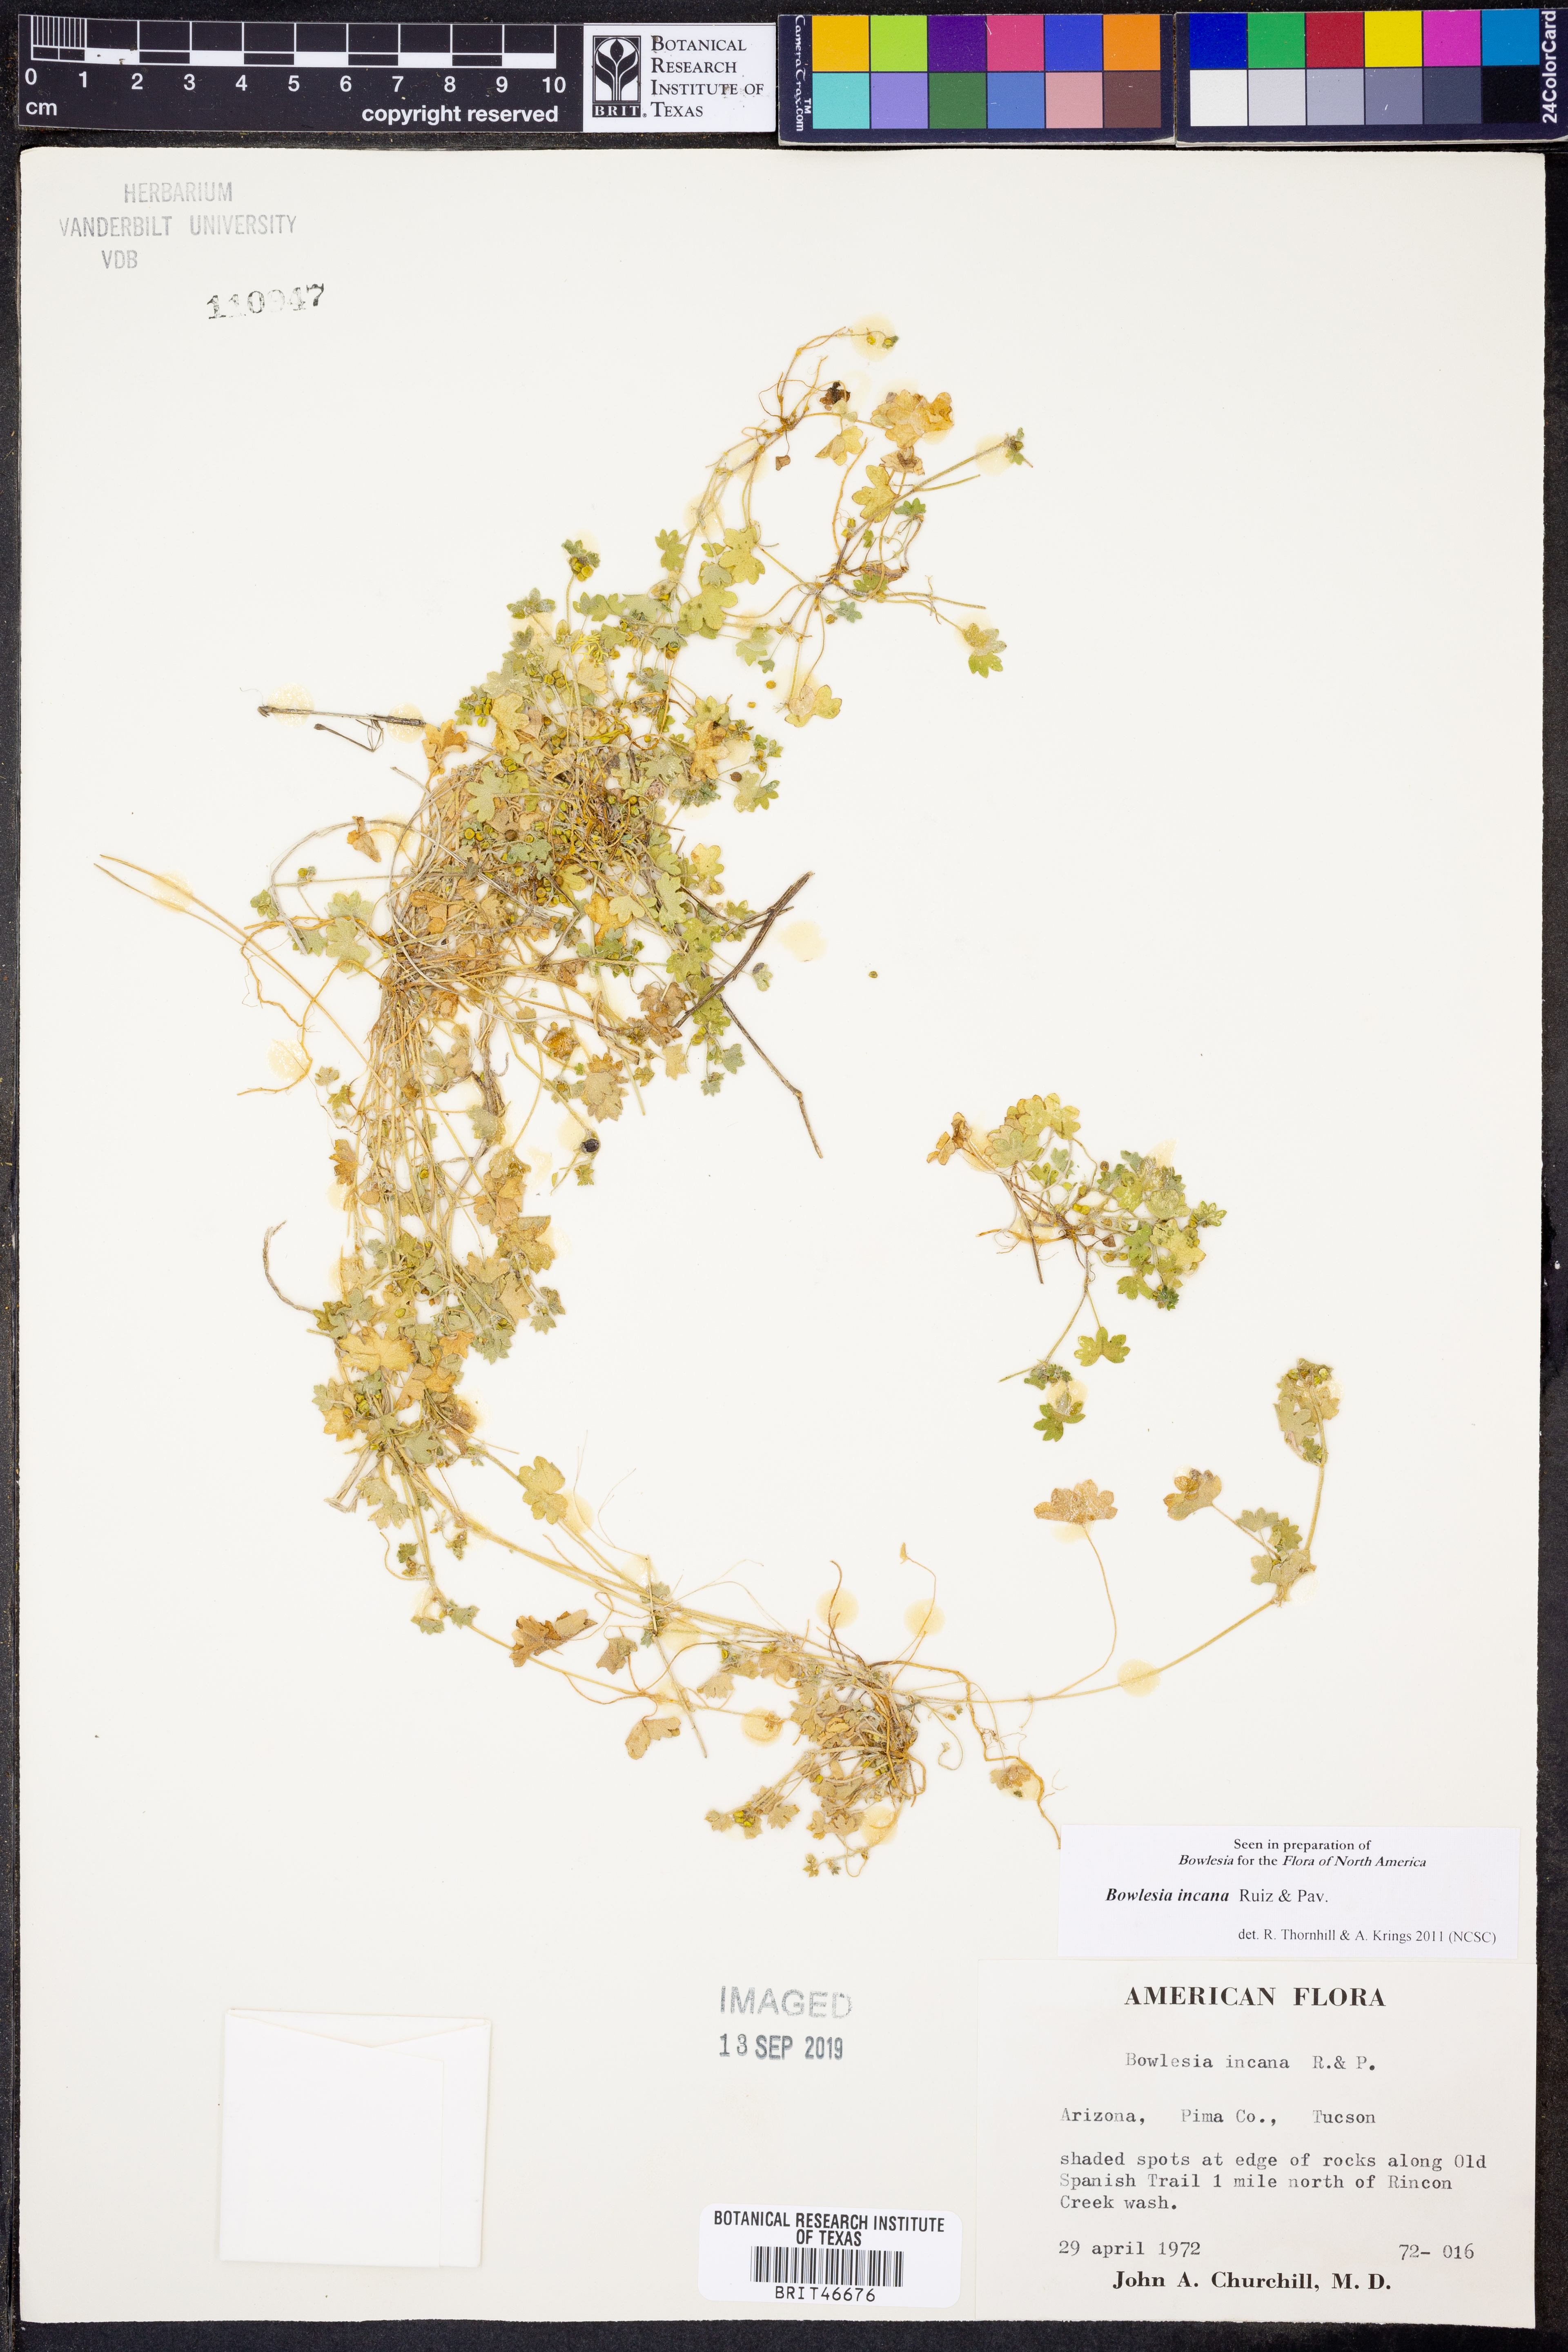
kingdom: Plantae
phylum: Tracheophyta
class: Magnoliopsida
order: Apiales
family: Apiaceae
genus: Bowlesia
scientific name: Bowlesia incana
